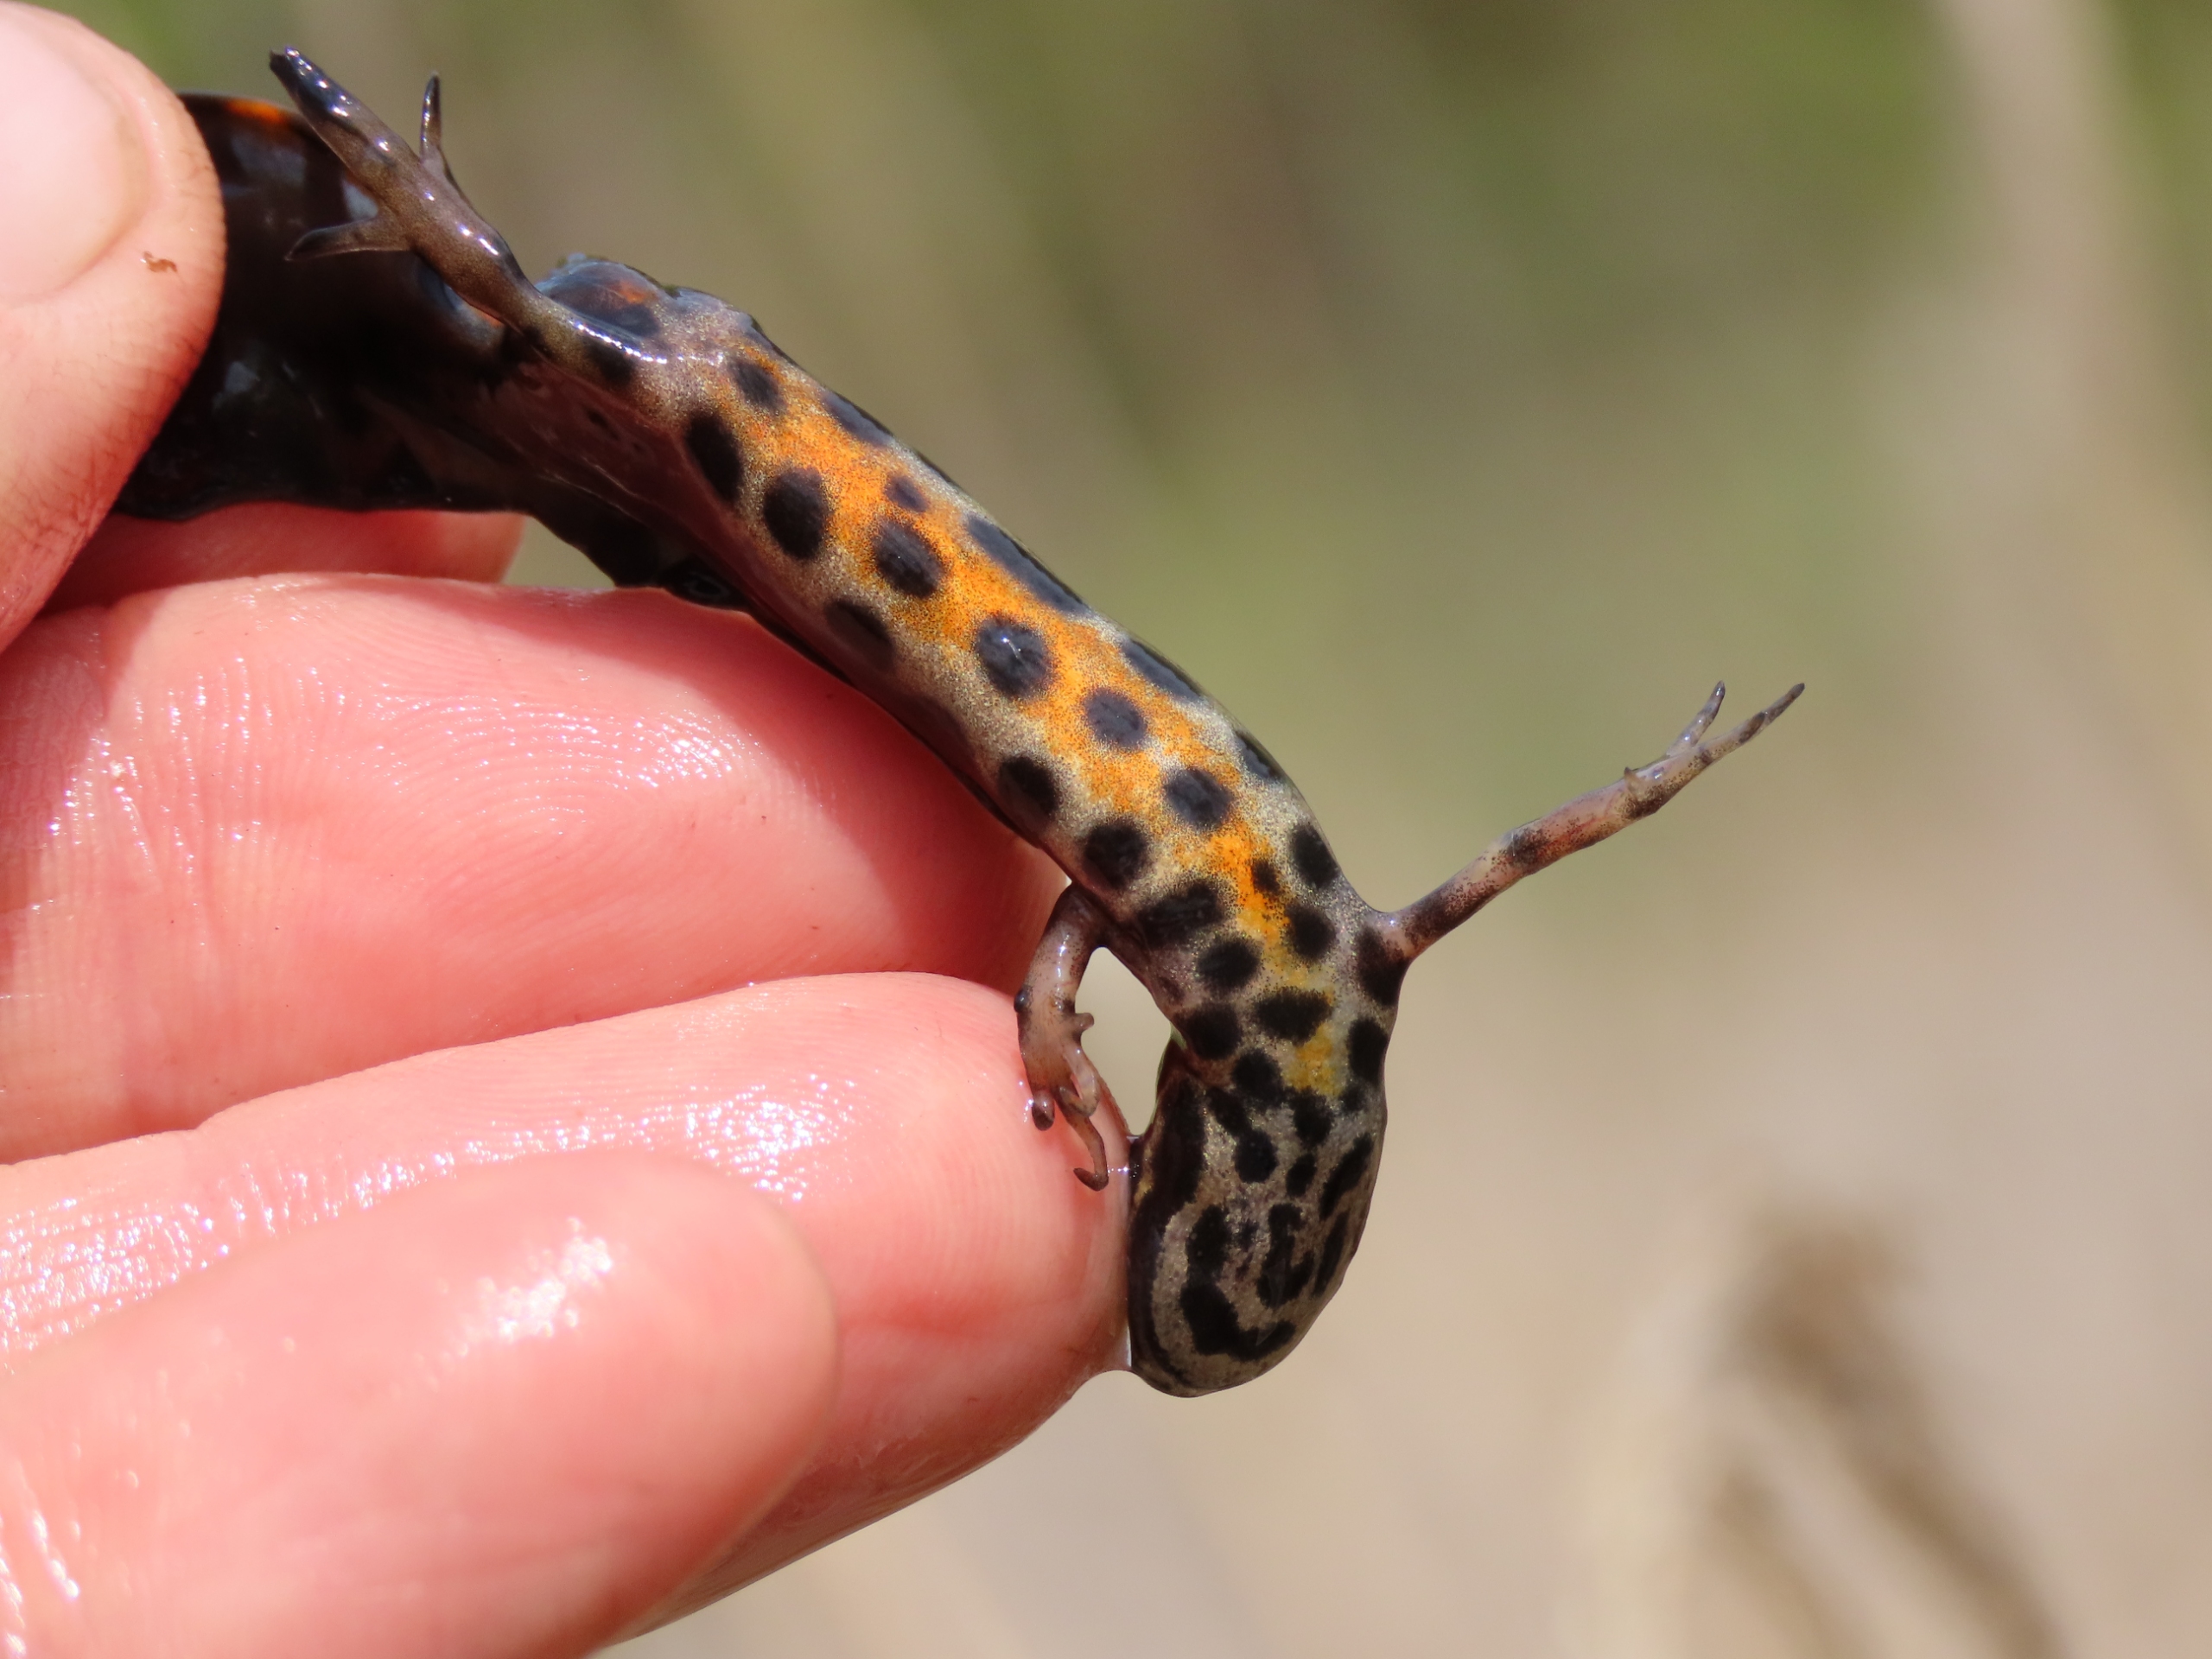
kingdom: Animalia
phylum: Chordata
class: Amphibia
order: Caudata
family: Salamandridae
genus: Lissotriton
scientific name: Lissotriton vulgaris
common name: Lille vandsalamander
